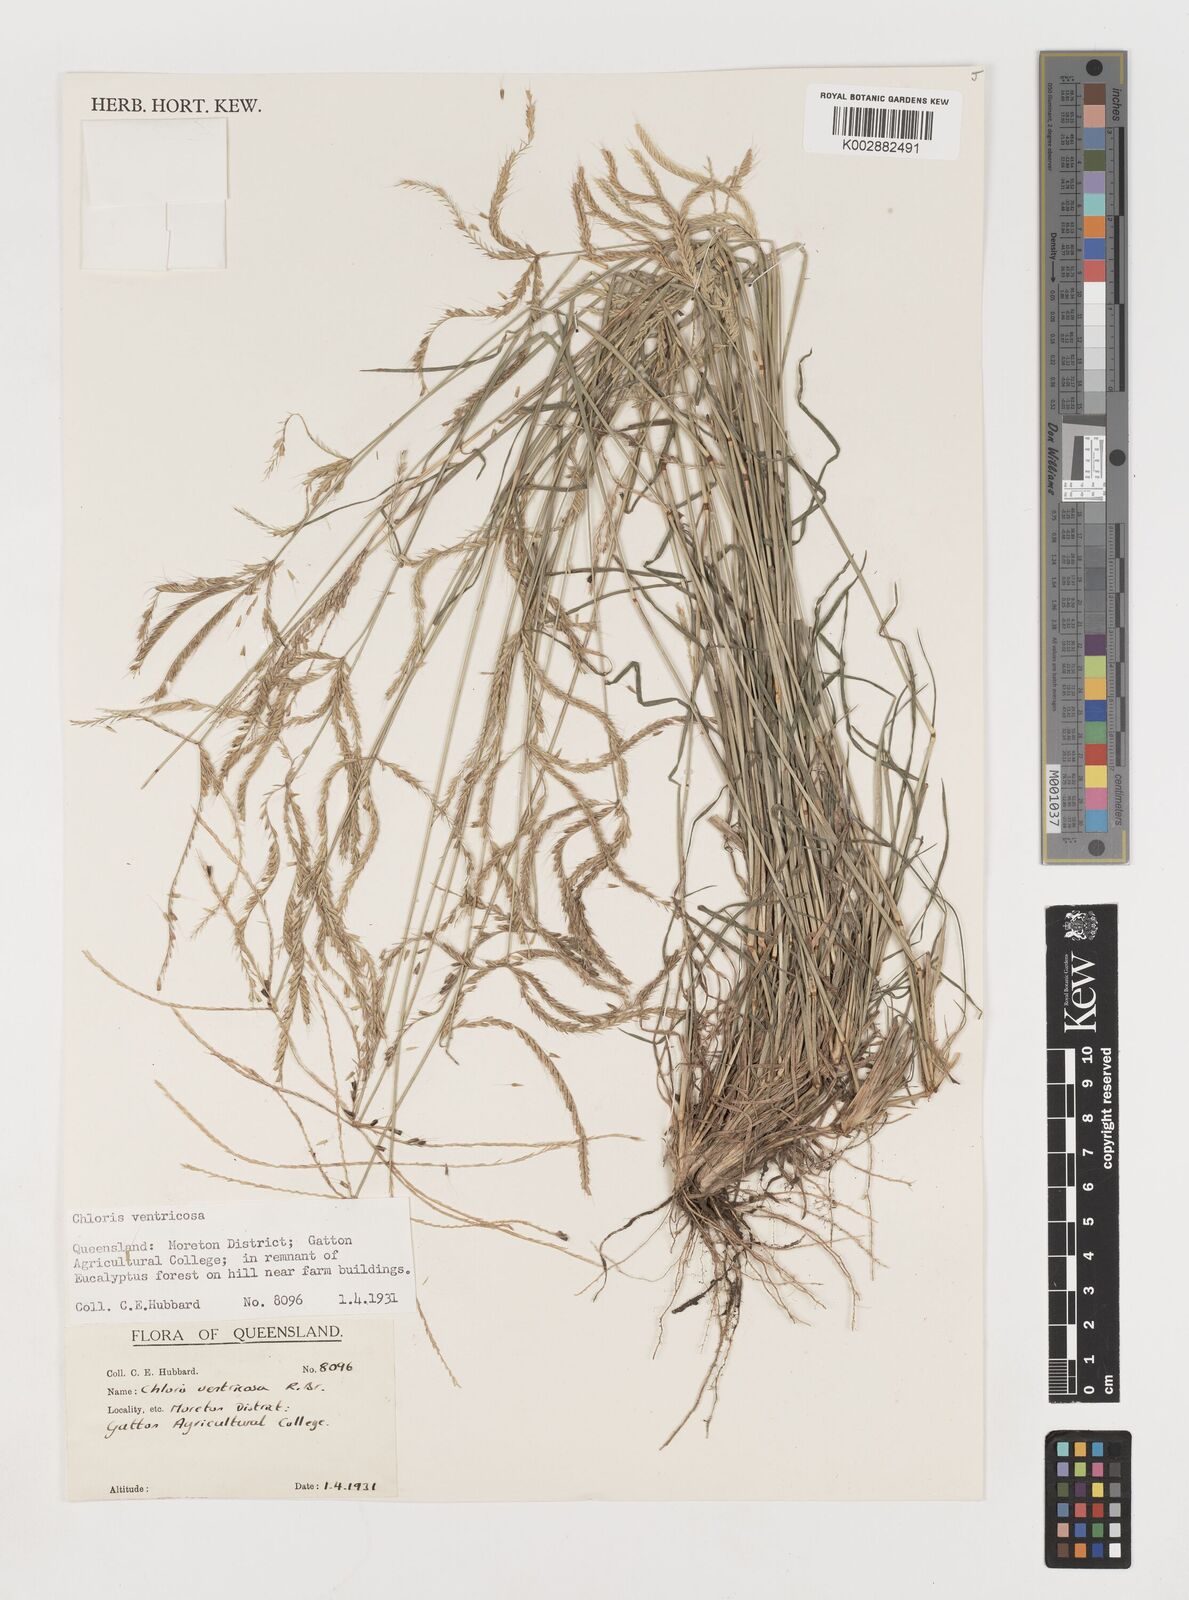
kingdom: Plantae
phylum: Tracheophyta
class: Liliopsida
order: Poales
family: Poaceae
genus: Chloris
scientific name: Chloris ventricosa
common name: Australian windmill grass
